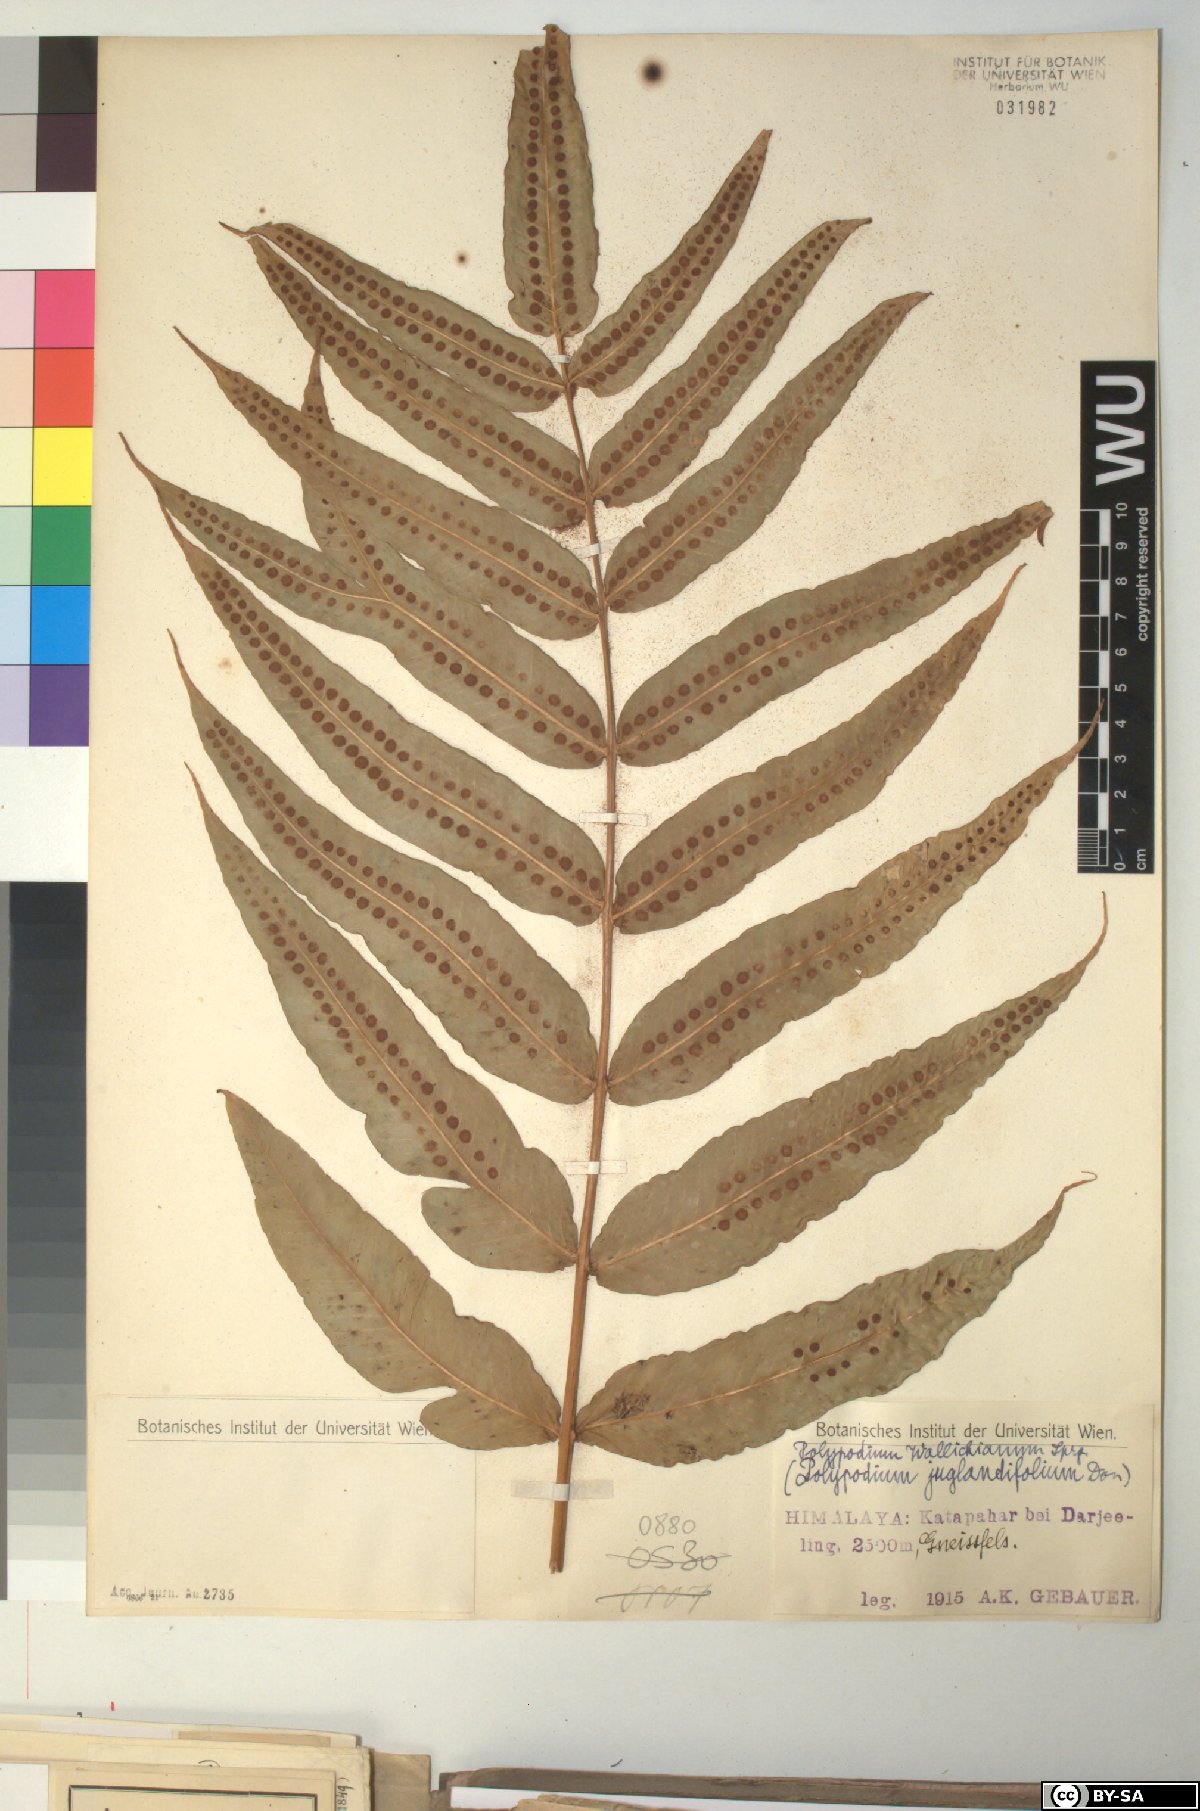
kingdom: Plantae
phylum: Tracheophyta
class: Polypodiopsida
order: Polypodiales
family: Polypodiaceae
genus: Selliguea
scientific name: Selliguea capitellata
